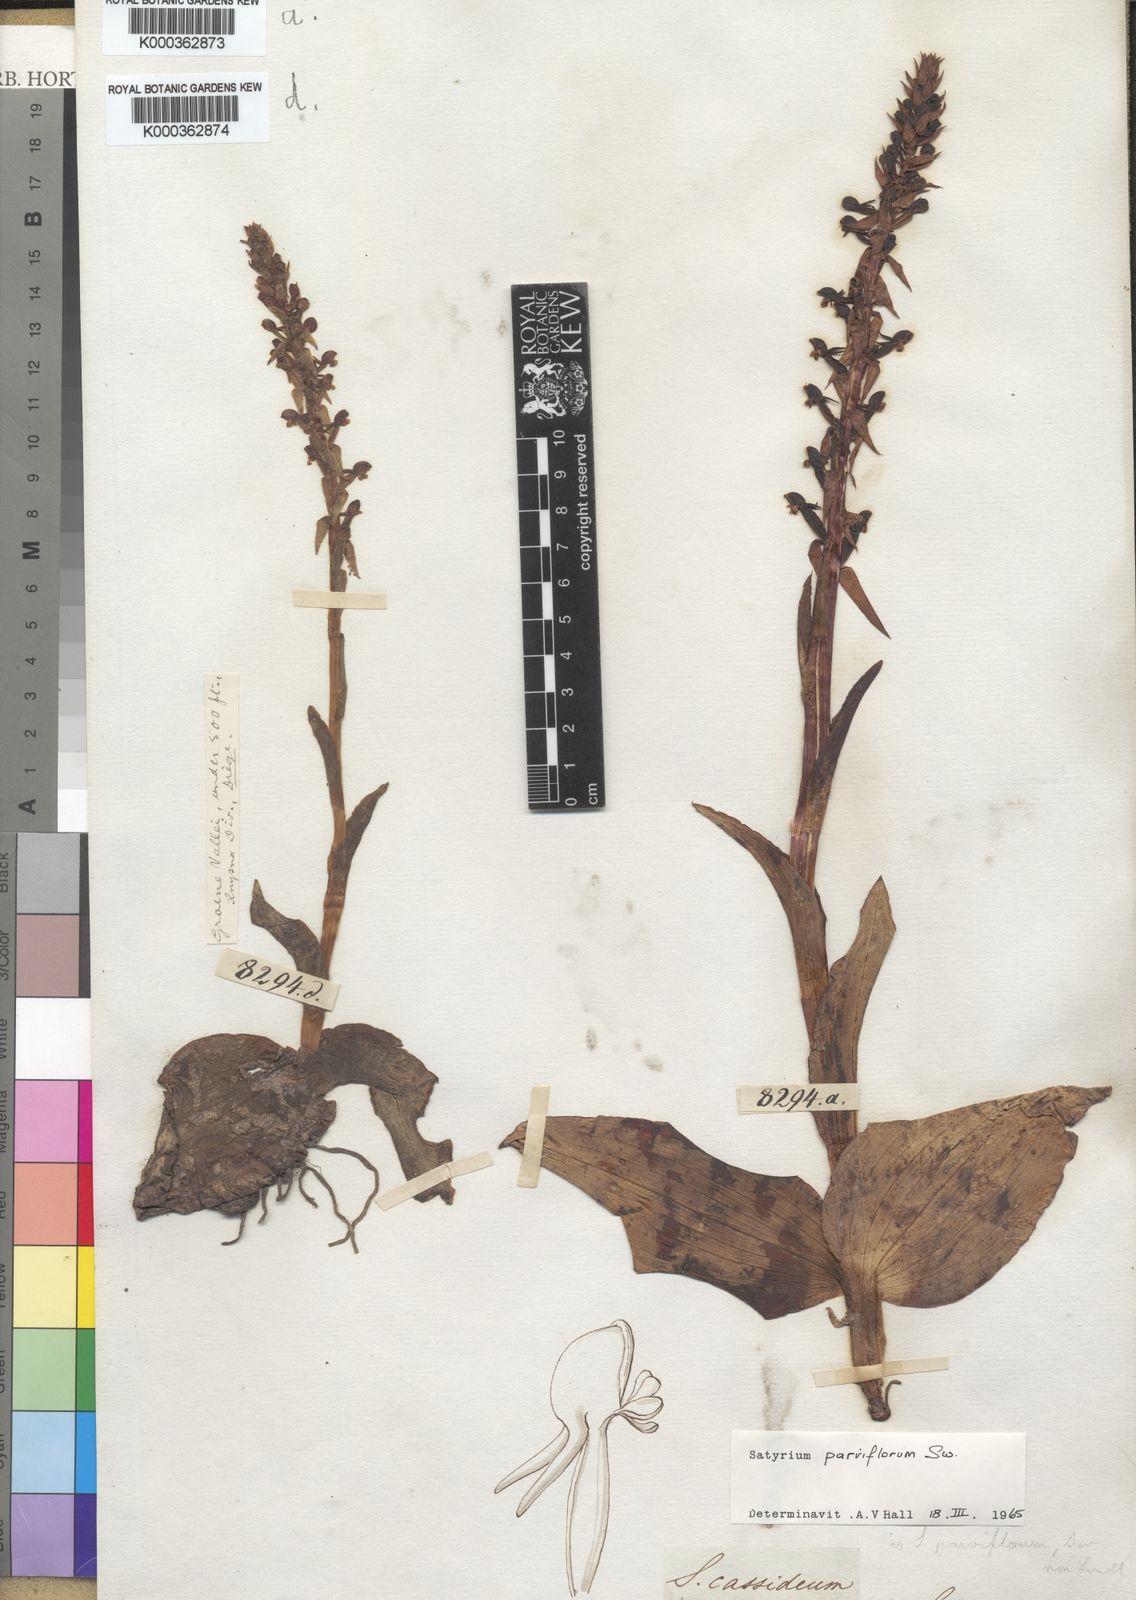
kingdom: Plantae
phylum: Tracheophyta
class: Liliopsida
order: Asparagales
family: Orchidaceae
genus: Satyrium
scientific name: Satyrium parviflorum
